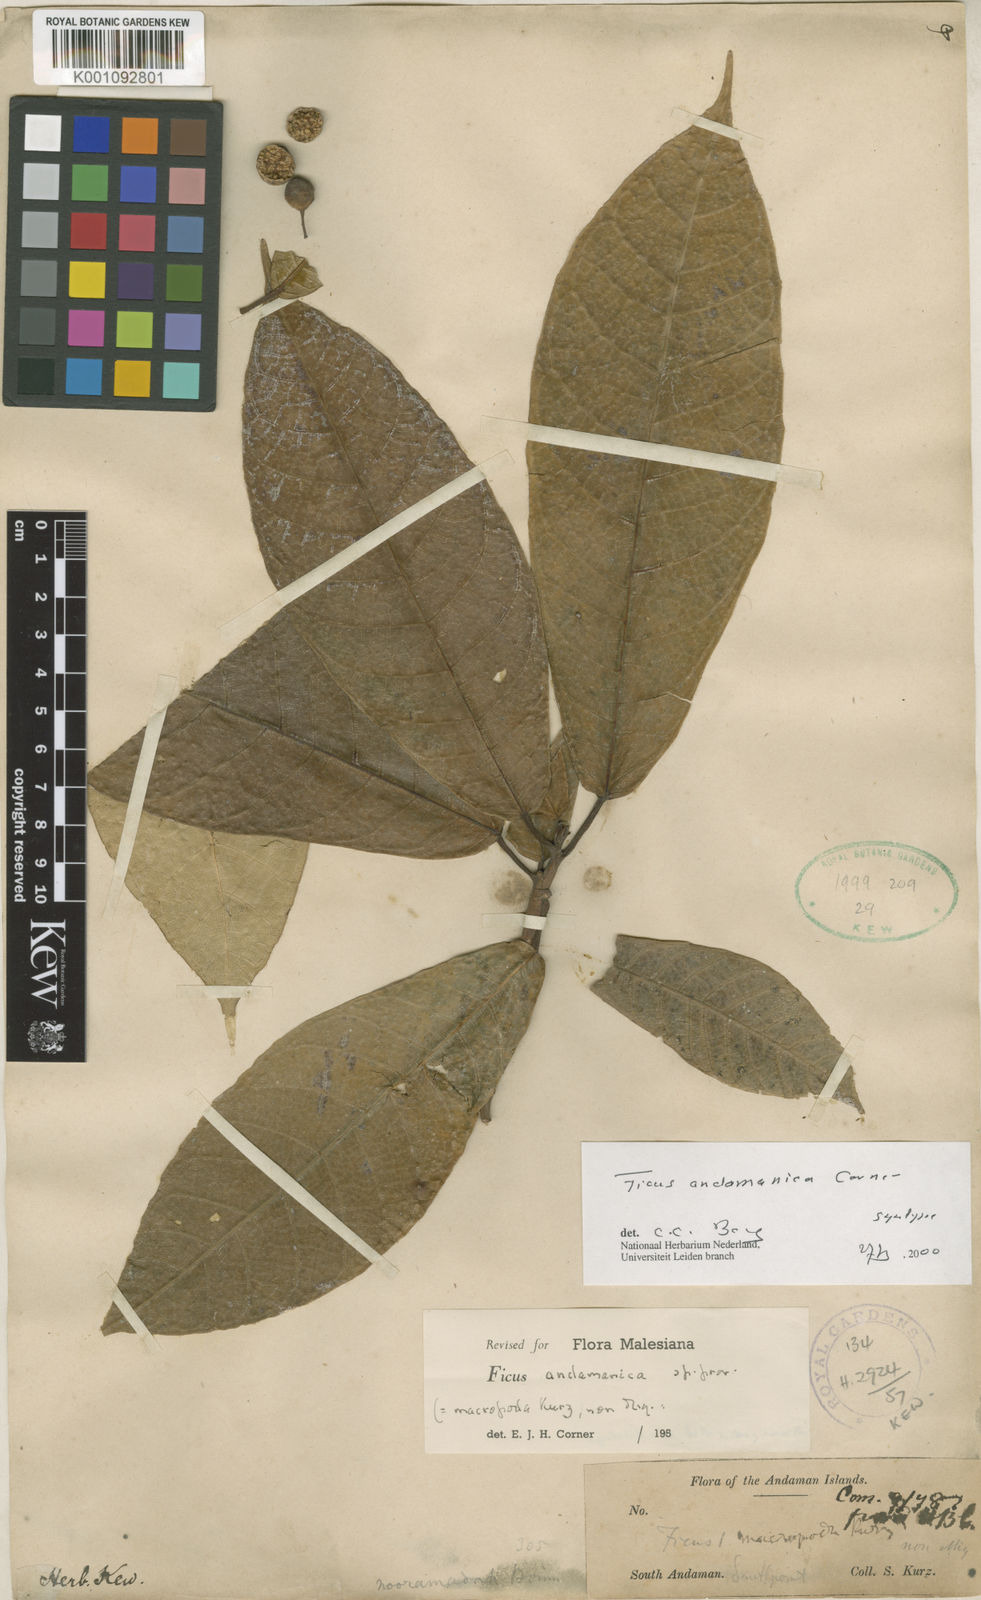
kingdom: Plantae
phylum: Tracheophyta
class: Magnoliopsida
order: Rosales
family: Moraceae
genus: Ficus
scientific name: Ficus andamanica
